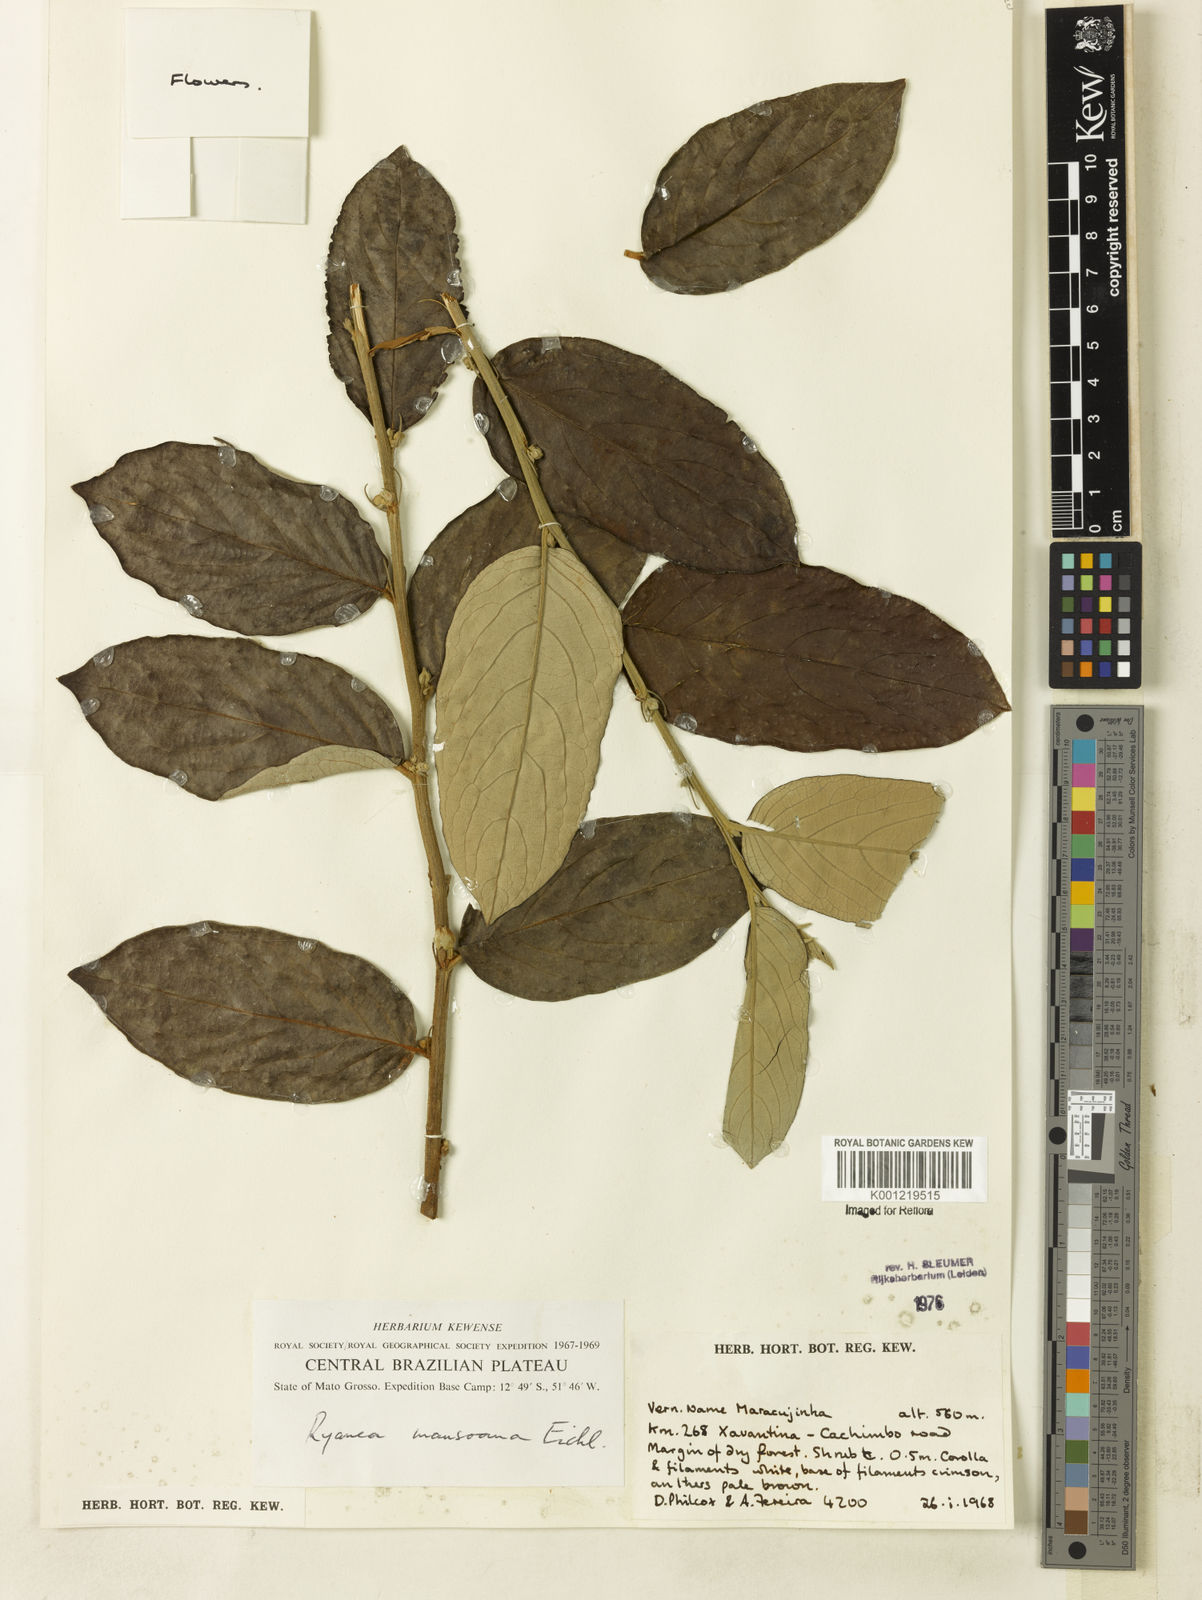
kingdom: Plantae
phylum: Tracheophyta
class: Magnoliopsida
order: Malpighiales
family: Salicaceae
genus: Ryania
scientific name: Ryania mansoana
